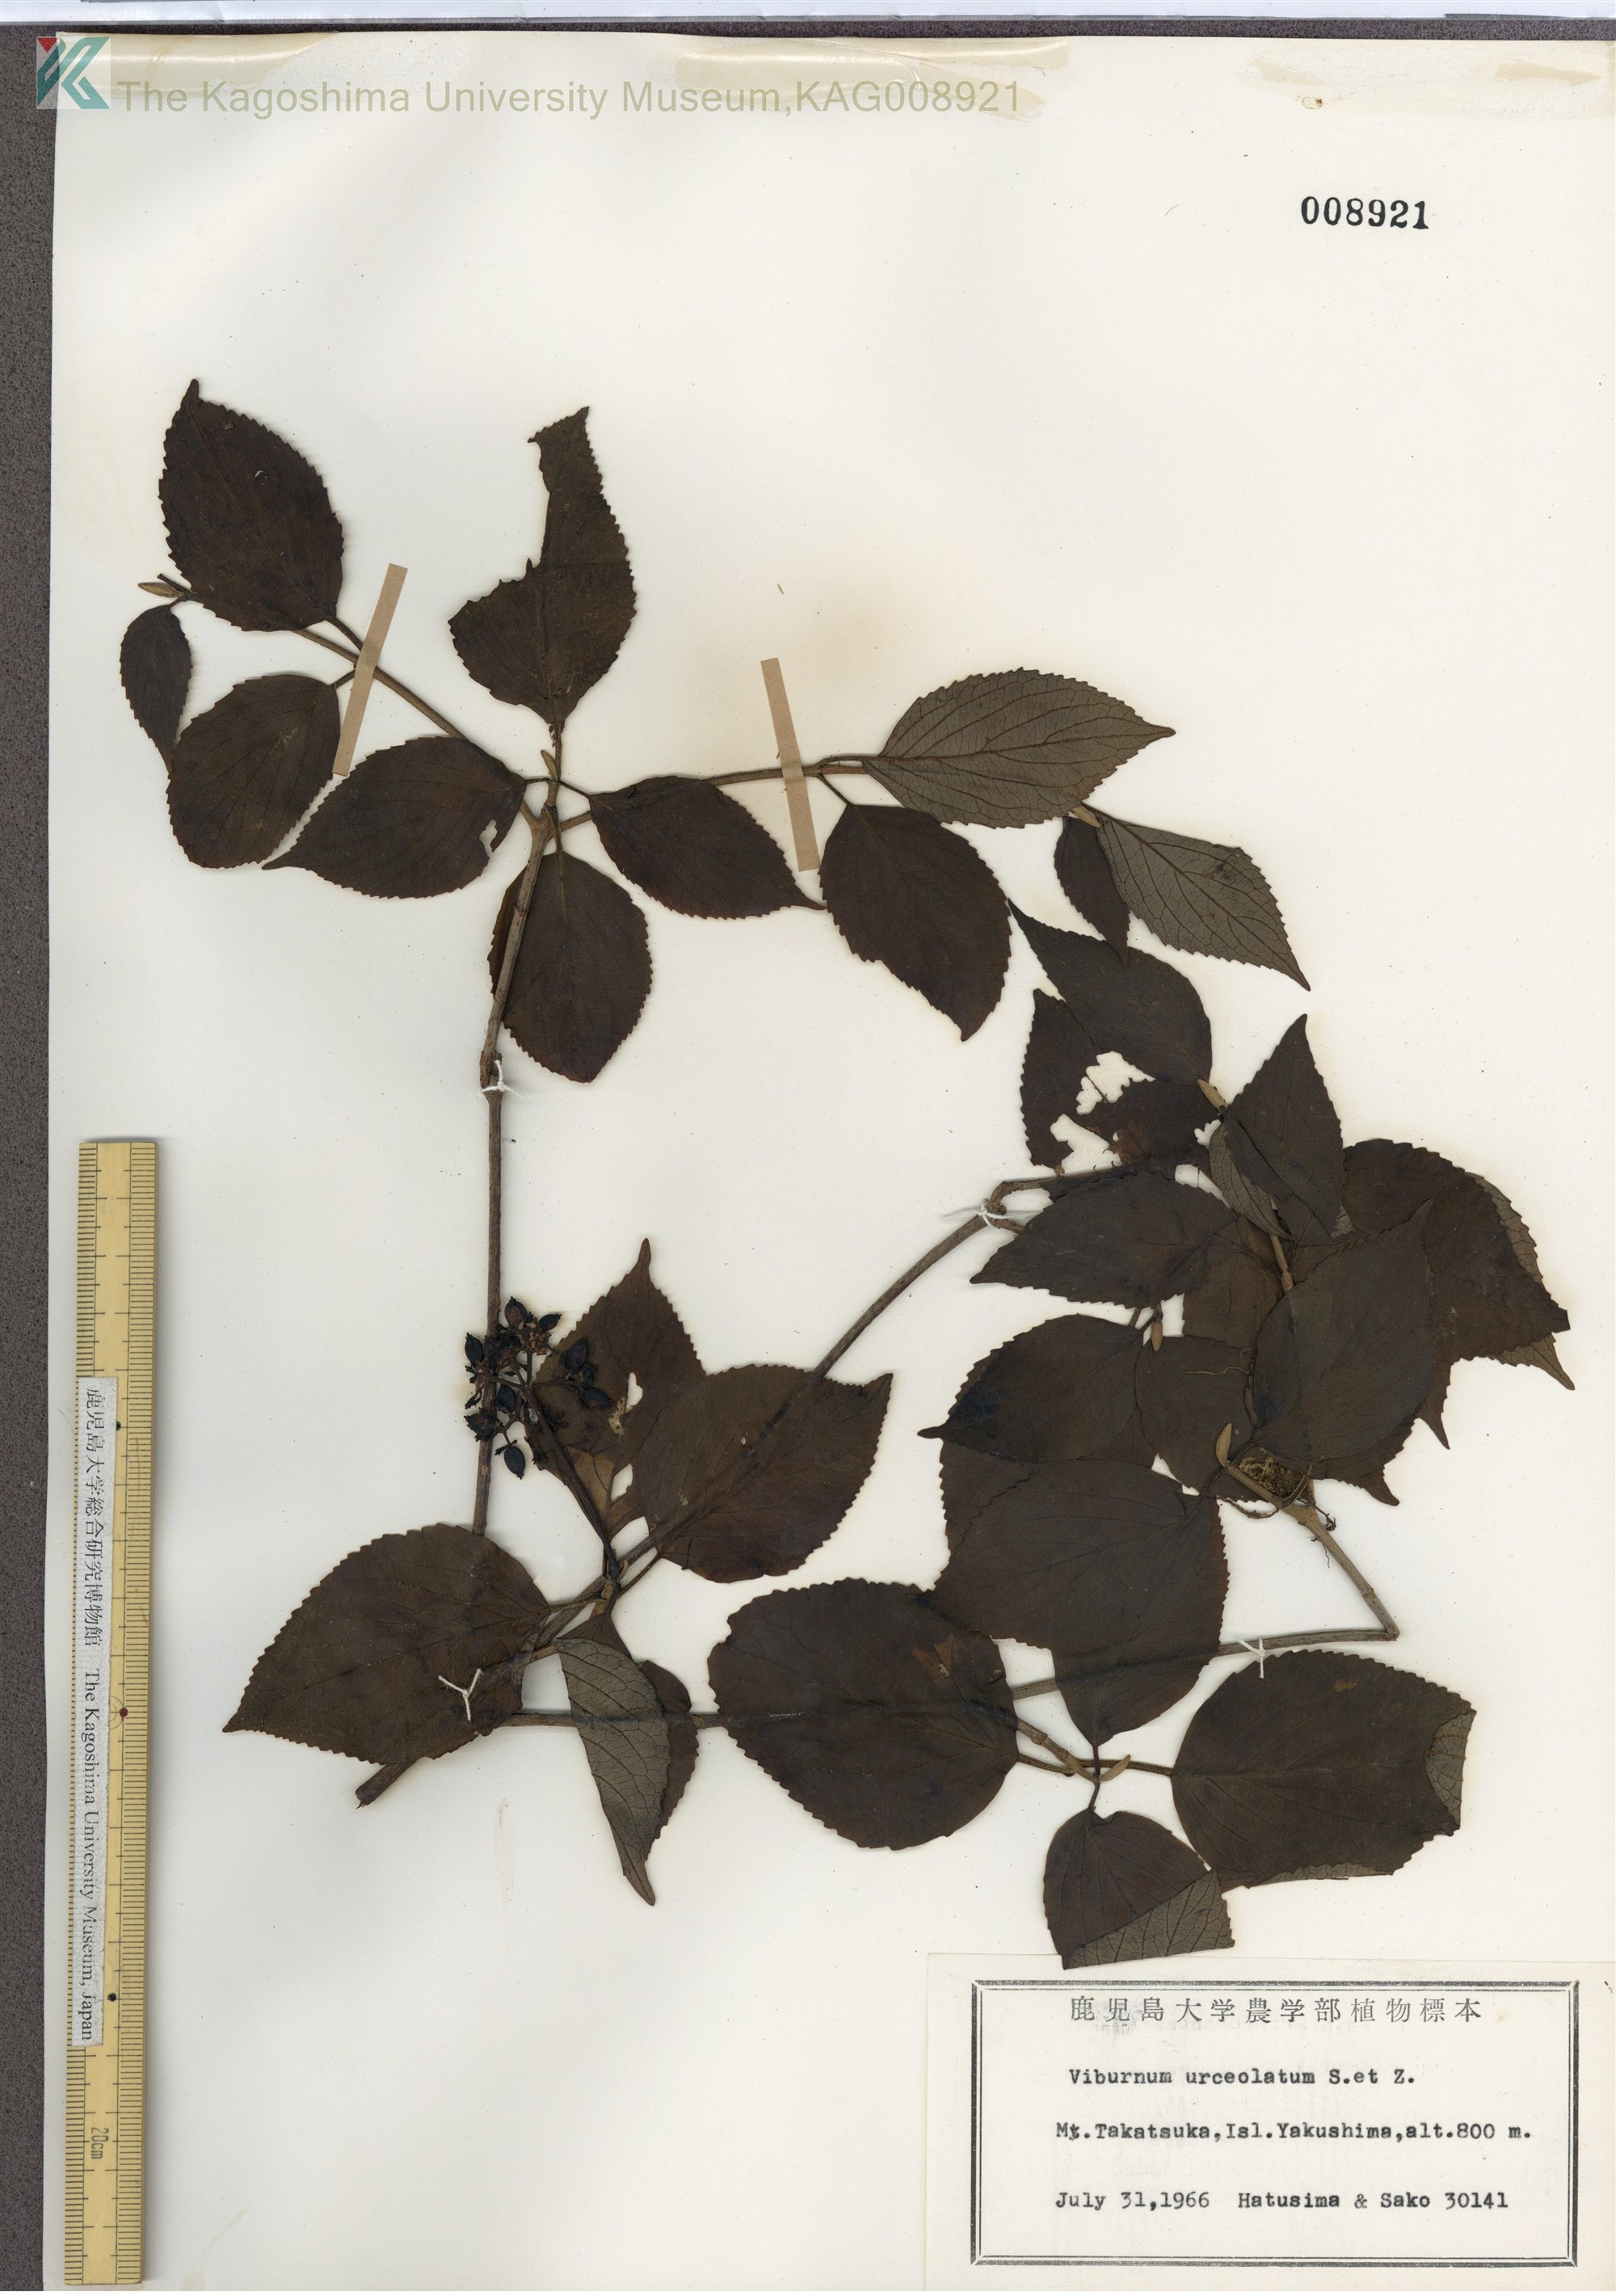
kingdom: Plantae
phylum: Tracheophyta
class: Magnoliopsida
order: Dipsacales
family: Viburnaceae
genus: Viburnum
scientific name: Viburnum urceolatum
